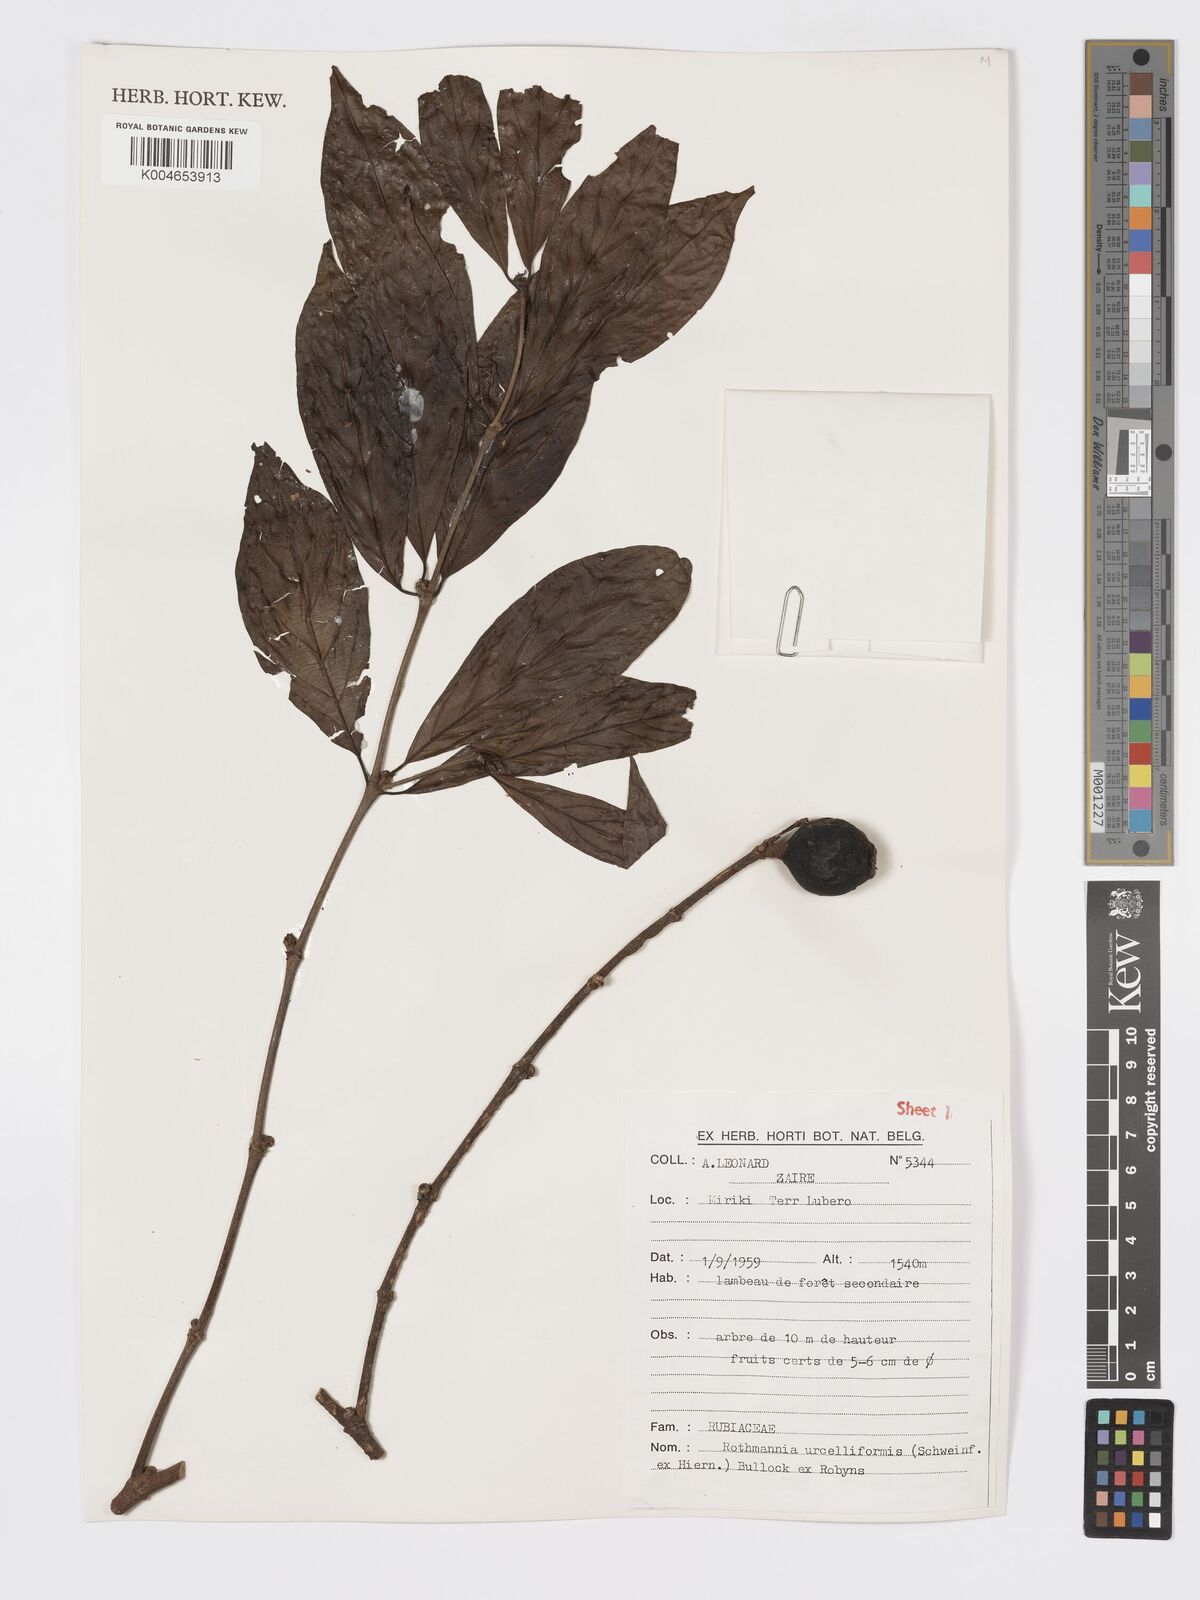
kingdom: Plantae
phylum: Tracheophyta
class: Magnoliopsida
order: Gentianales
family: Rubiaceae
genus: Rothmannia
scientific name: Rothmannia urcelliformis
